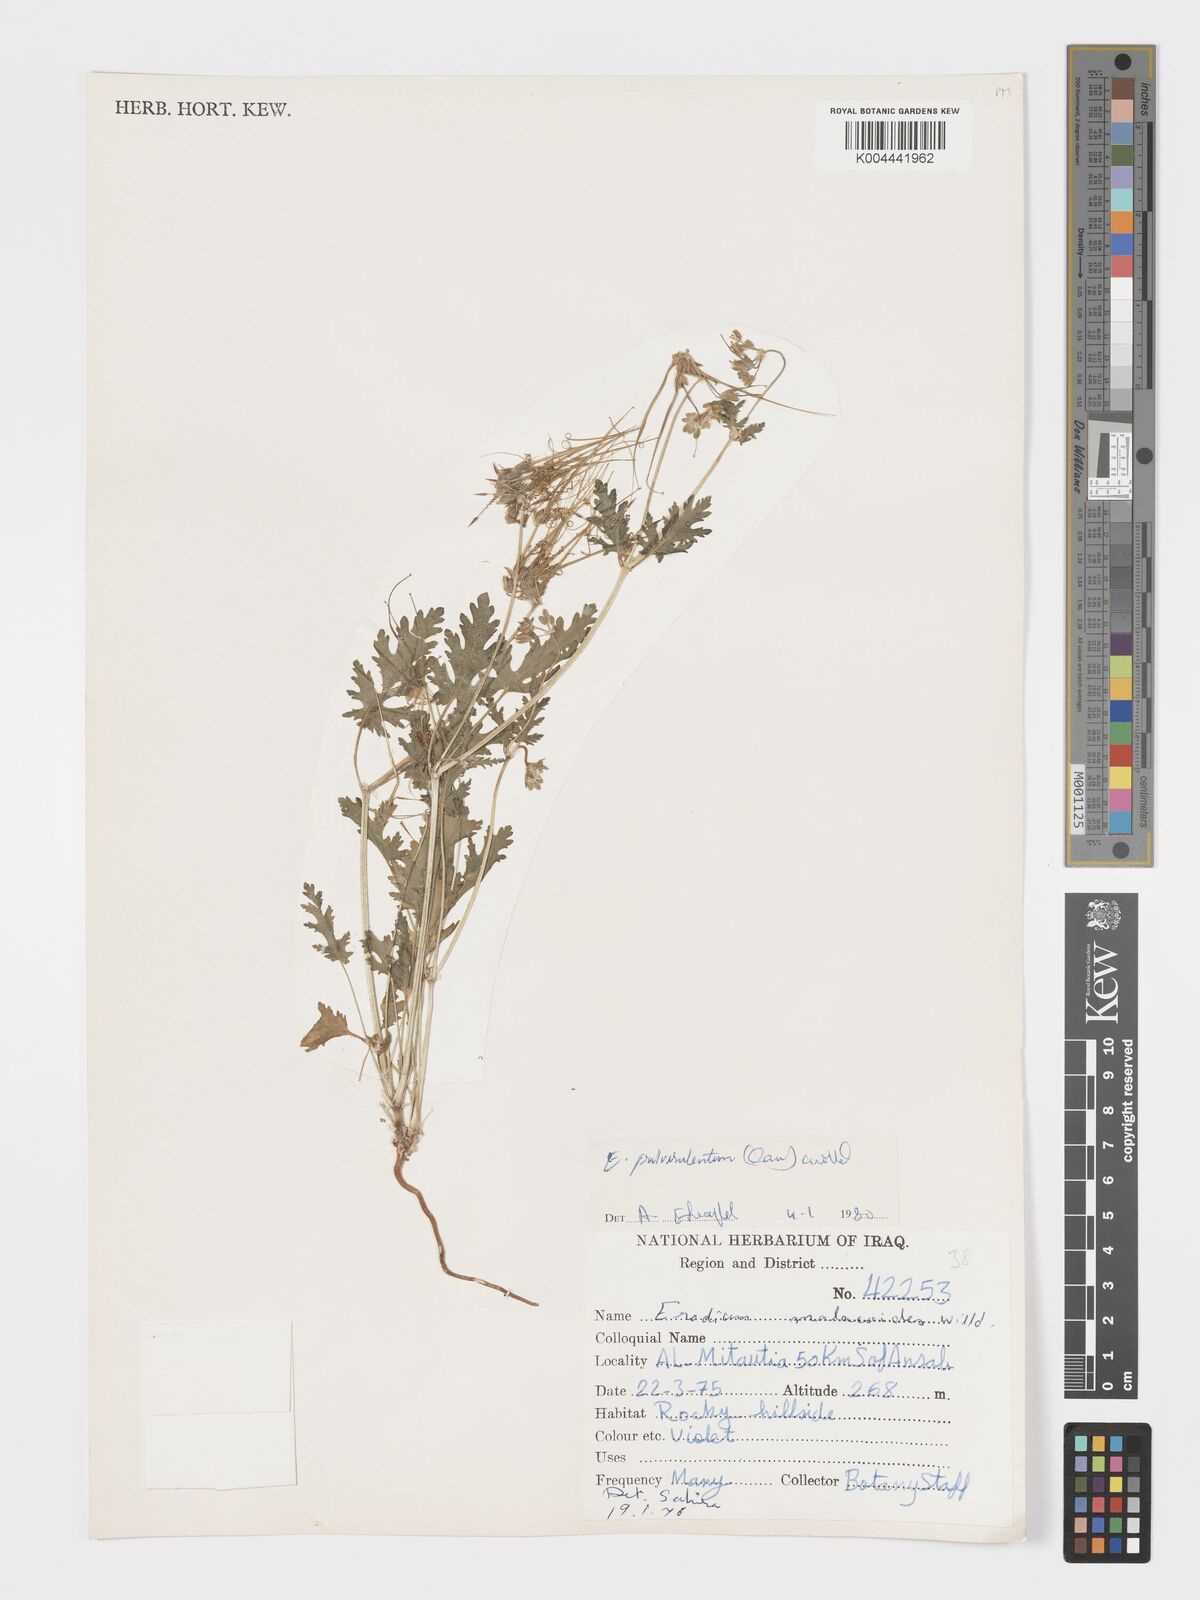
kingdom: Plantae
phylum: Tracheophyta
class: Magnoliopsida
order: Geraniales
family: Geraniaceae
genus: Erodium
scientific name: Erodium laciniatum
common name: Cutleaf stork's bill
